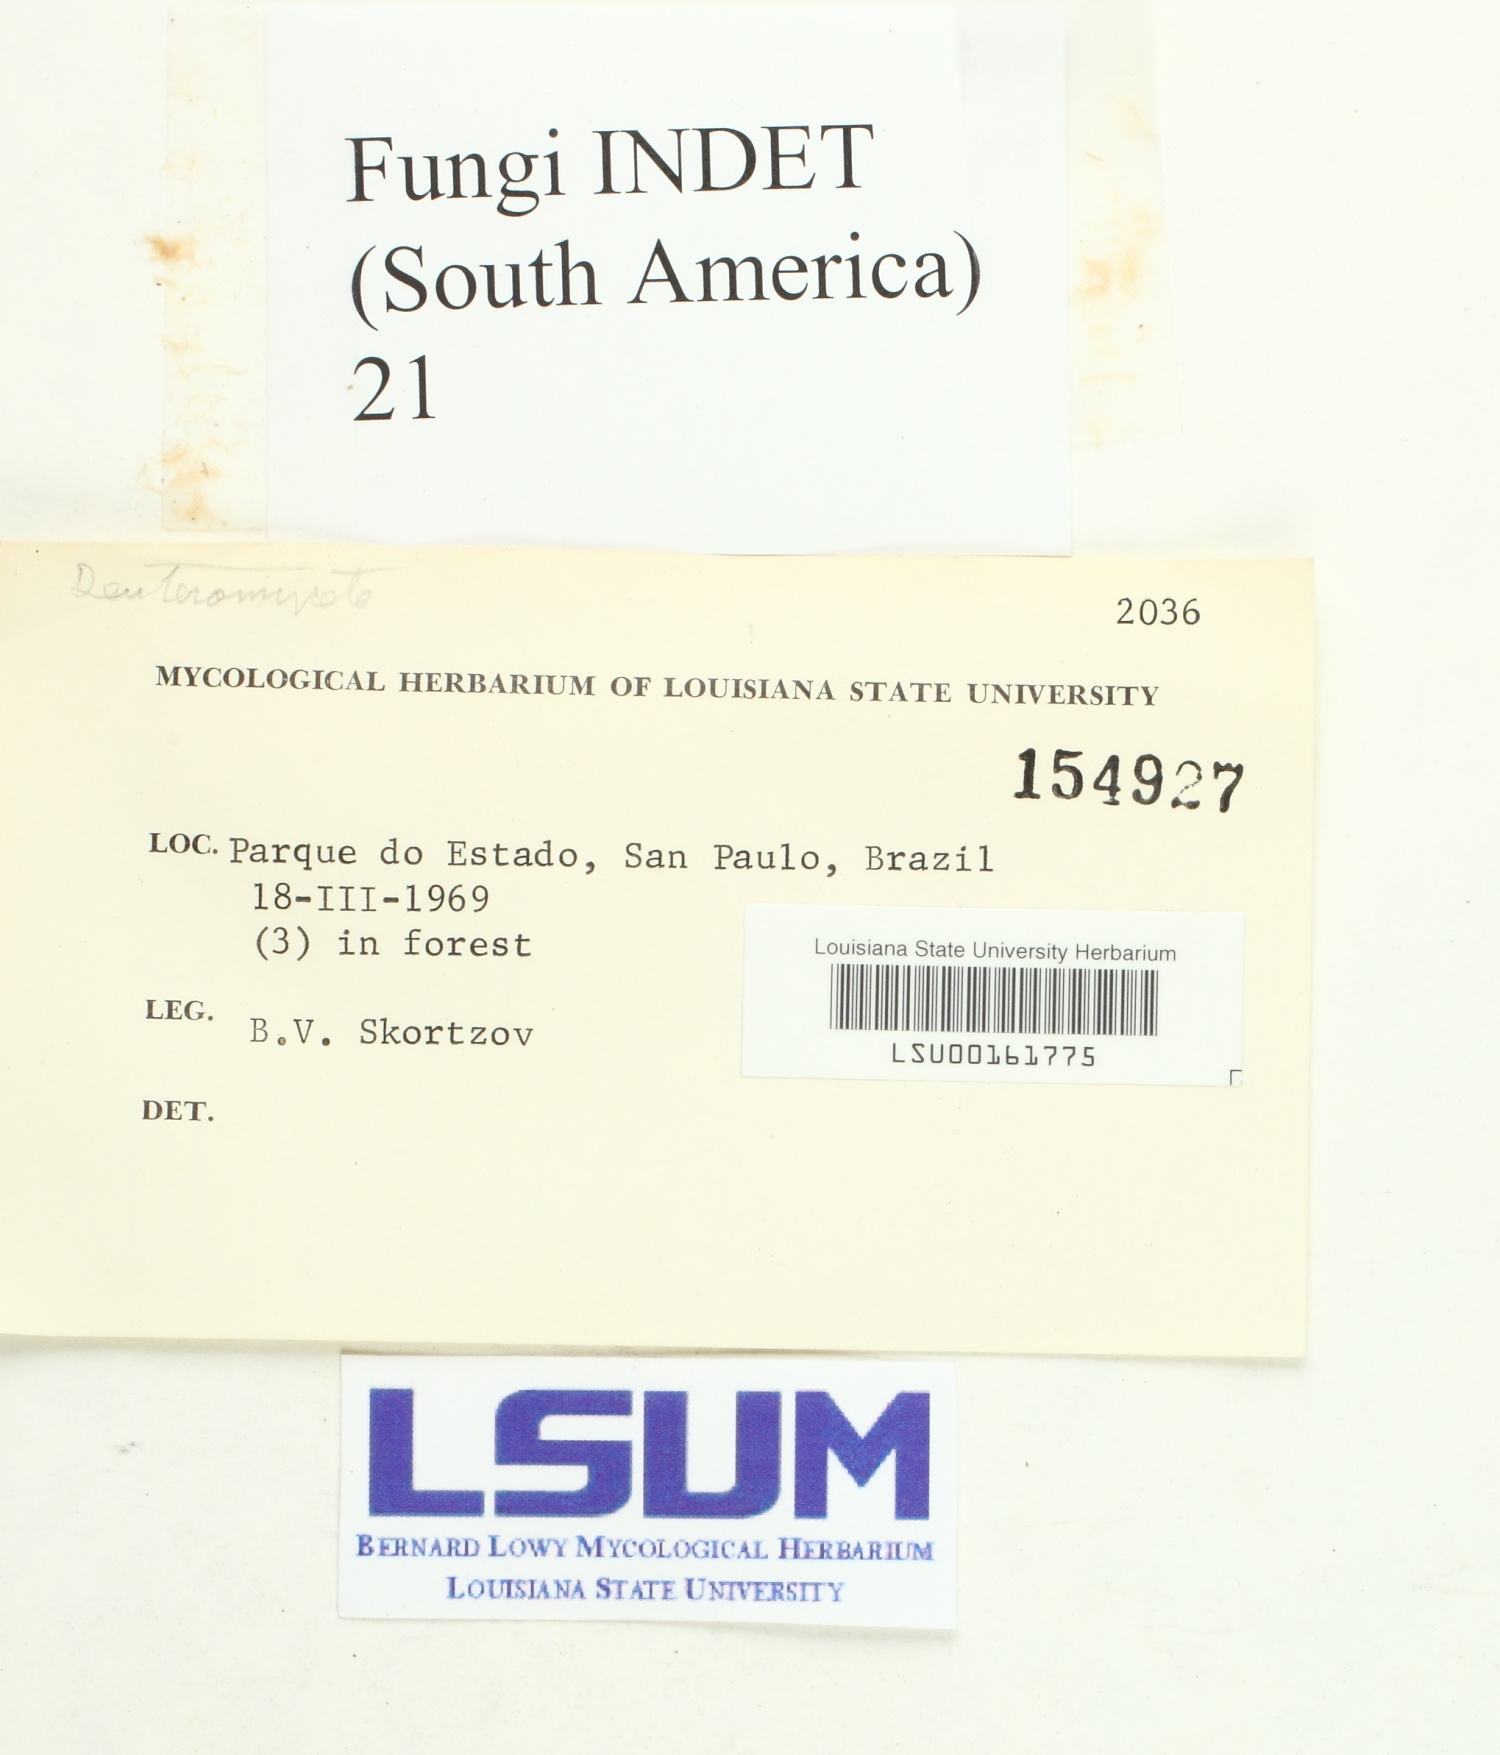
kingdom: Fungi
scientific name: Fungi
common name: Fungi
